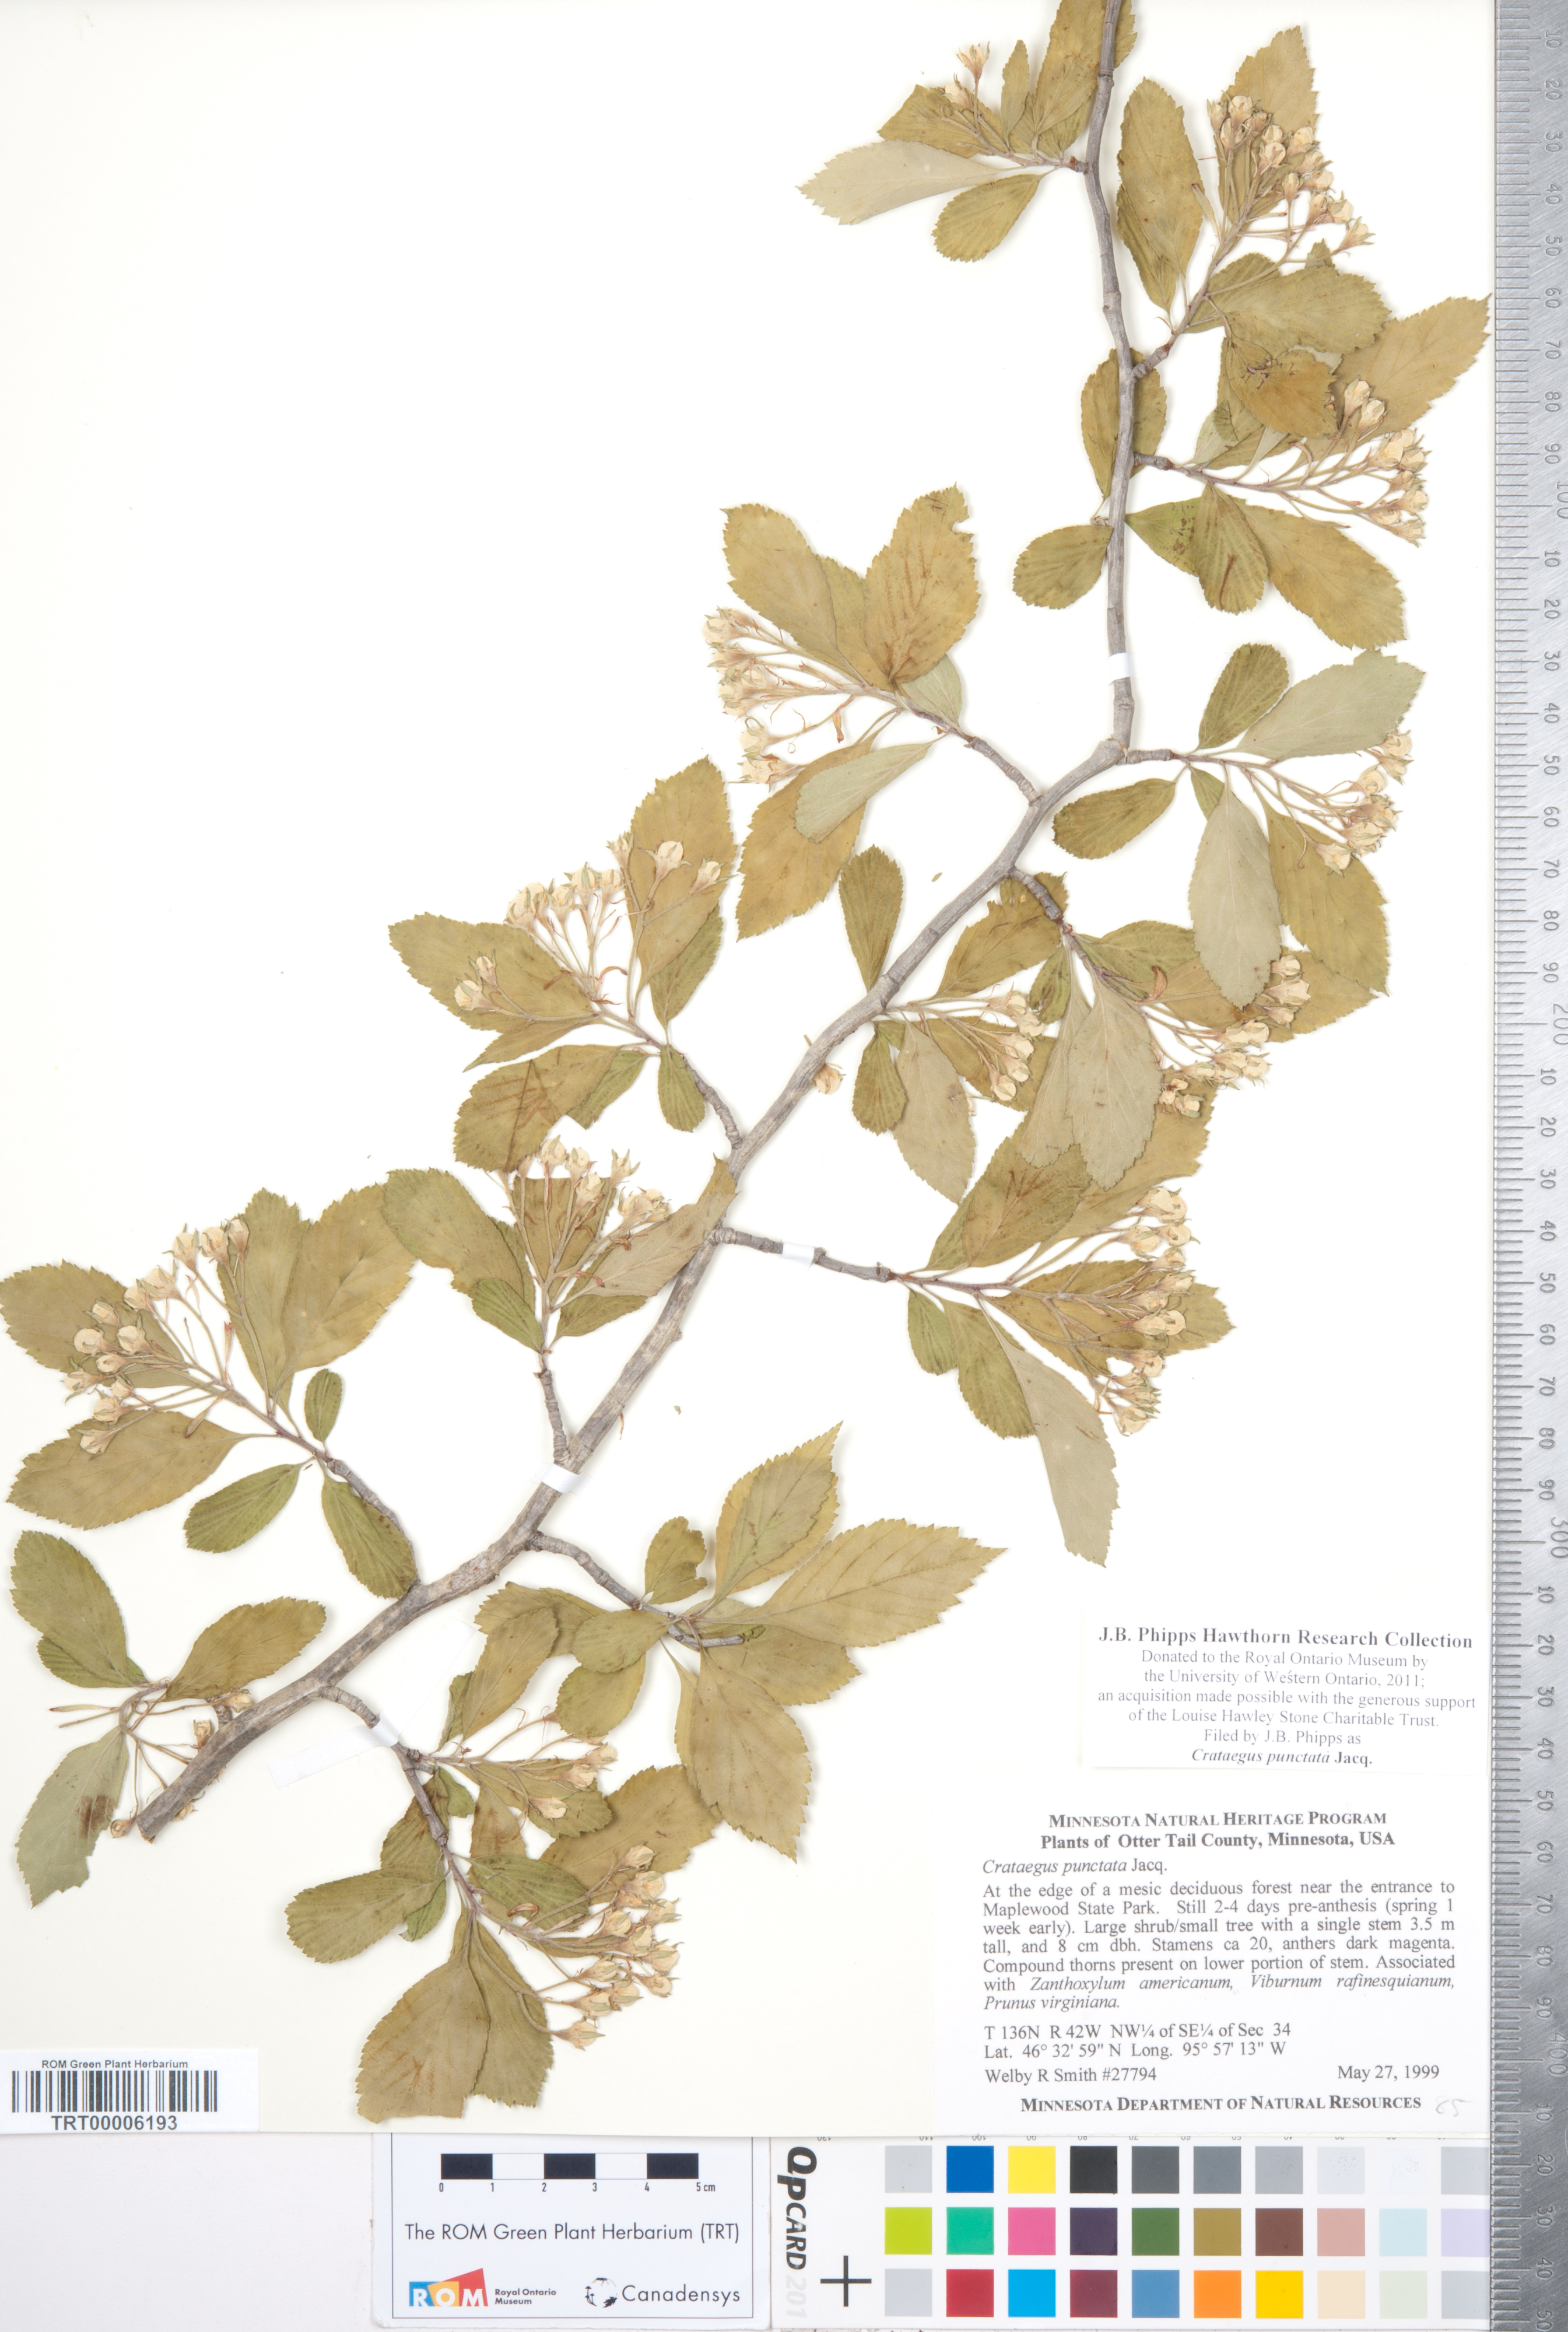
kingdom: Plantae
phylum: Tracheophyta
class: Magnoliopsida
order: Rosales
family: Rosaceae
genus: Crataegus
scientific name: Crataegus punctata
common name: Dotted hawthorn
